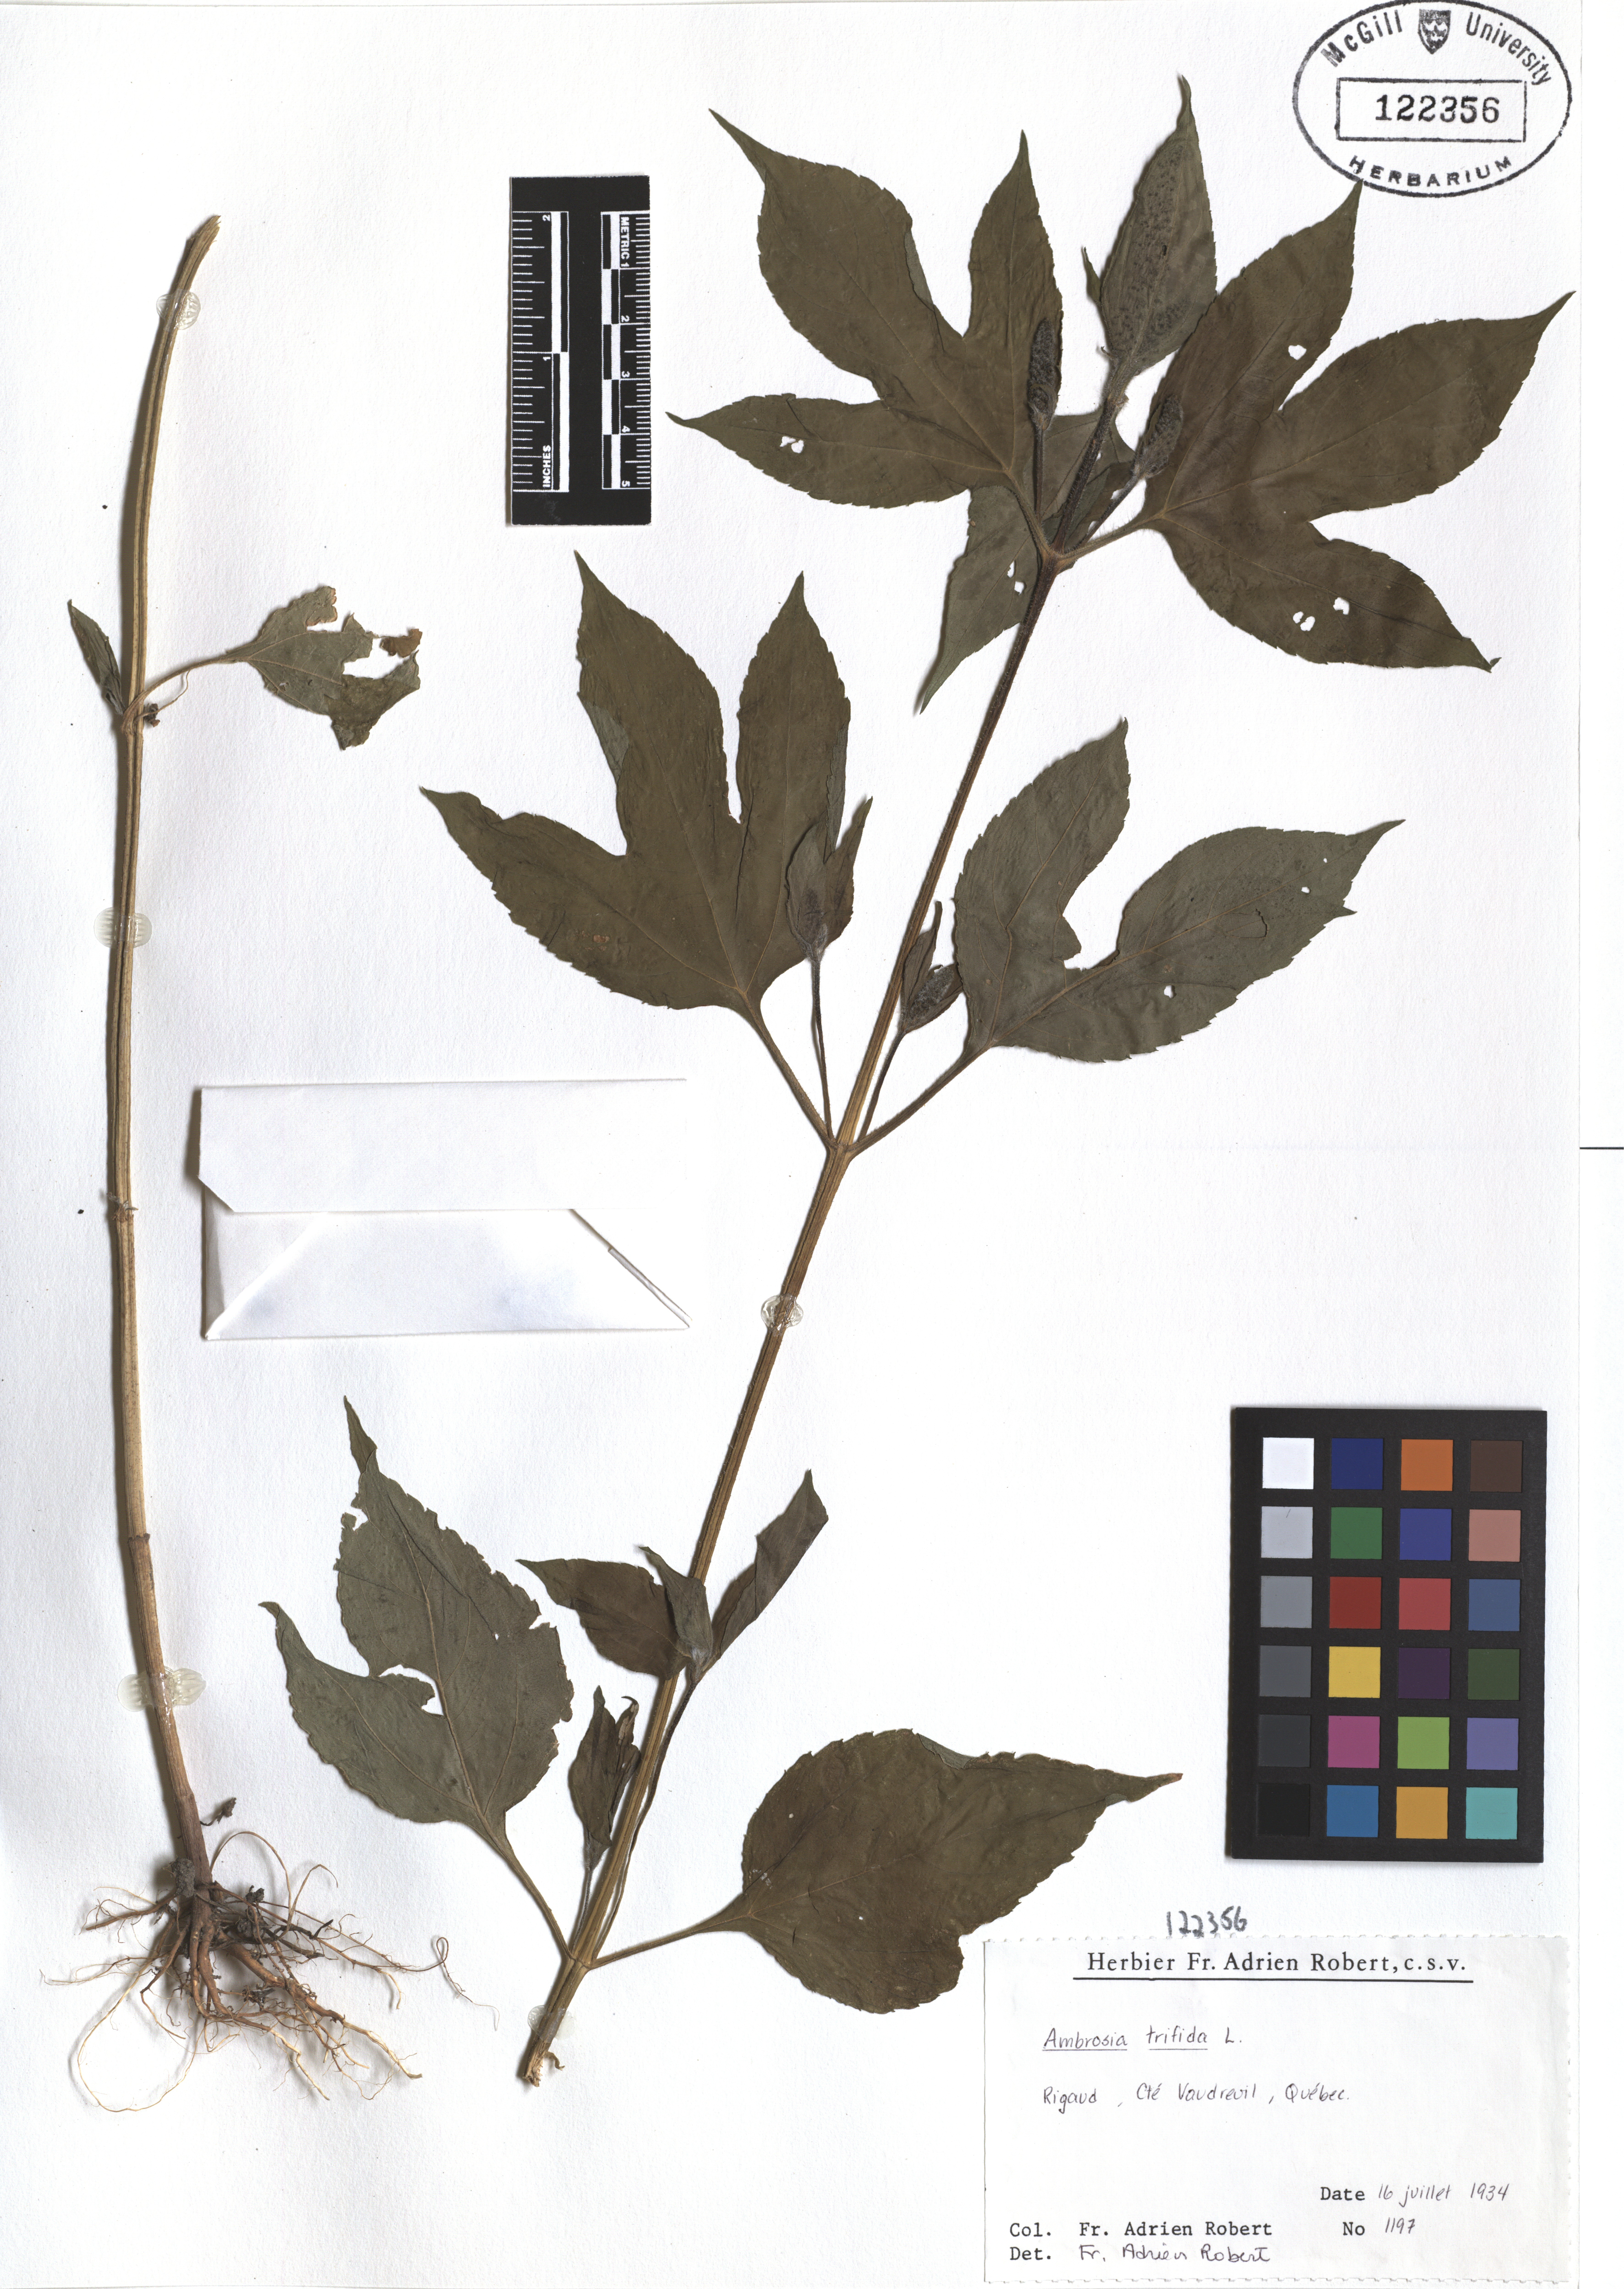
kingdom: Plantae
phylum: Tracheophyta
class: Magnoliopsida
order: Asterales
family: Asteraceae
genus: Ambrosia
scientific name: Ambrosia trifida
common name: Giant ragweed
